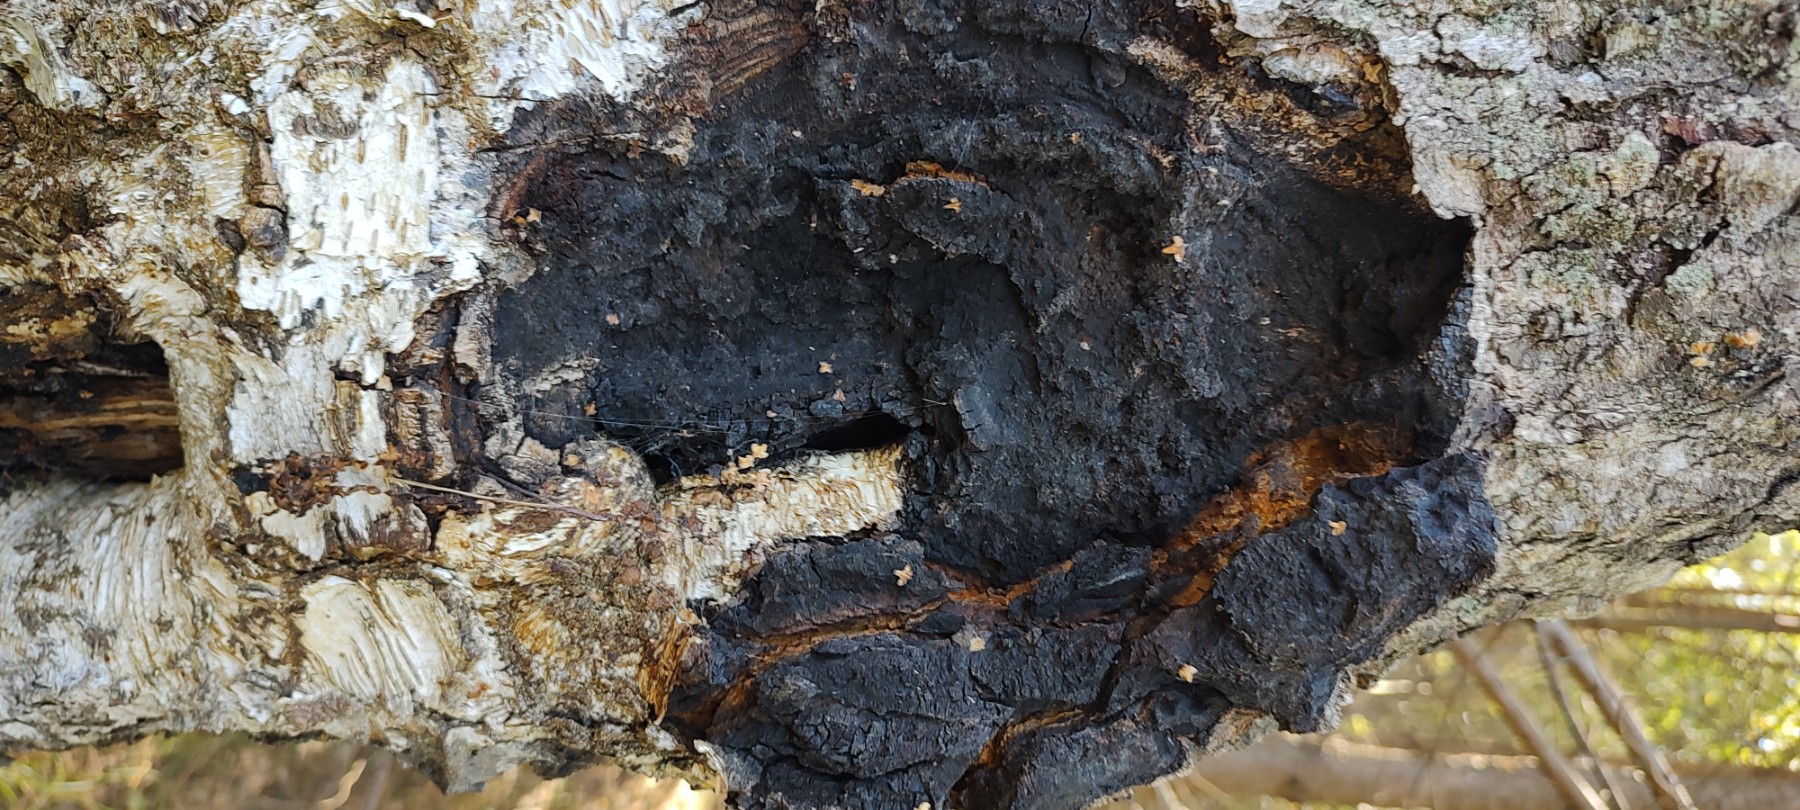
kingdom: Fungi
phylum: Basidiomycota
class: Agaricomycetes
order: Hymenochaetales
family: Hymenochaetaceae
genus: Inonotus
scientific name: Inonotus obliquus
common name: birke-spejlporesvamp
